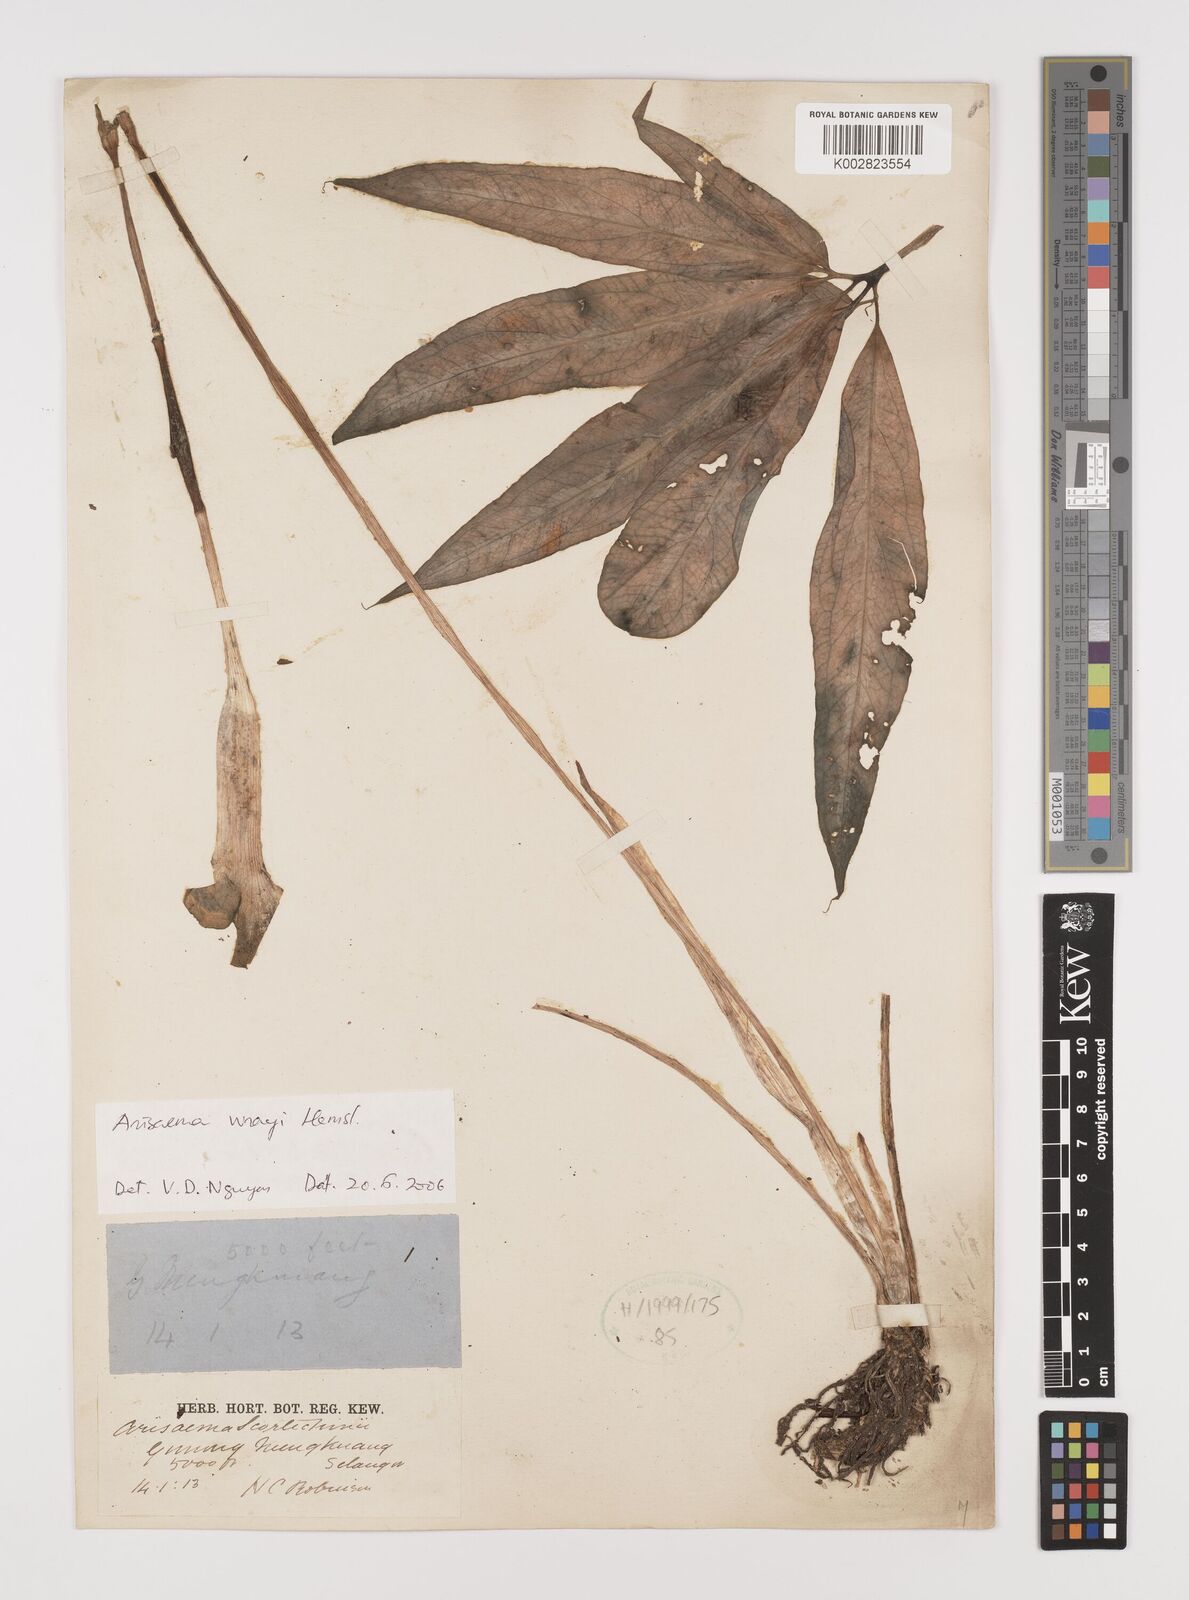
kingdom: Plantae
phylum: Tracheophyta
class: Liliopsida
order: Alismatales
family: Araceae
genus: Arisaema
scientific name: Arisaema wrayi
